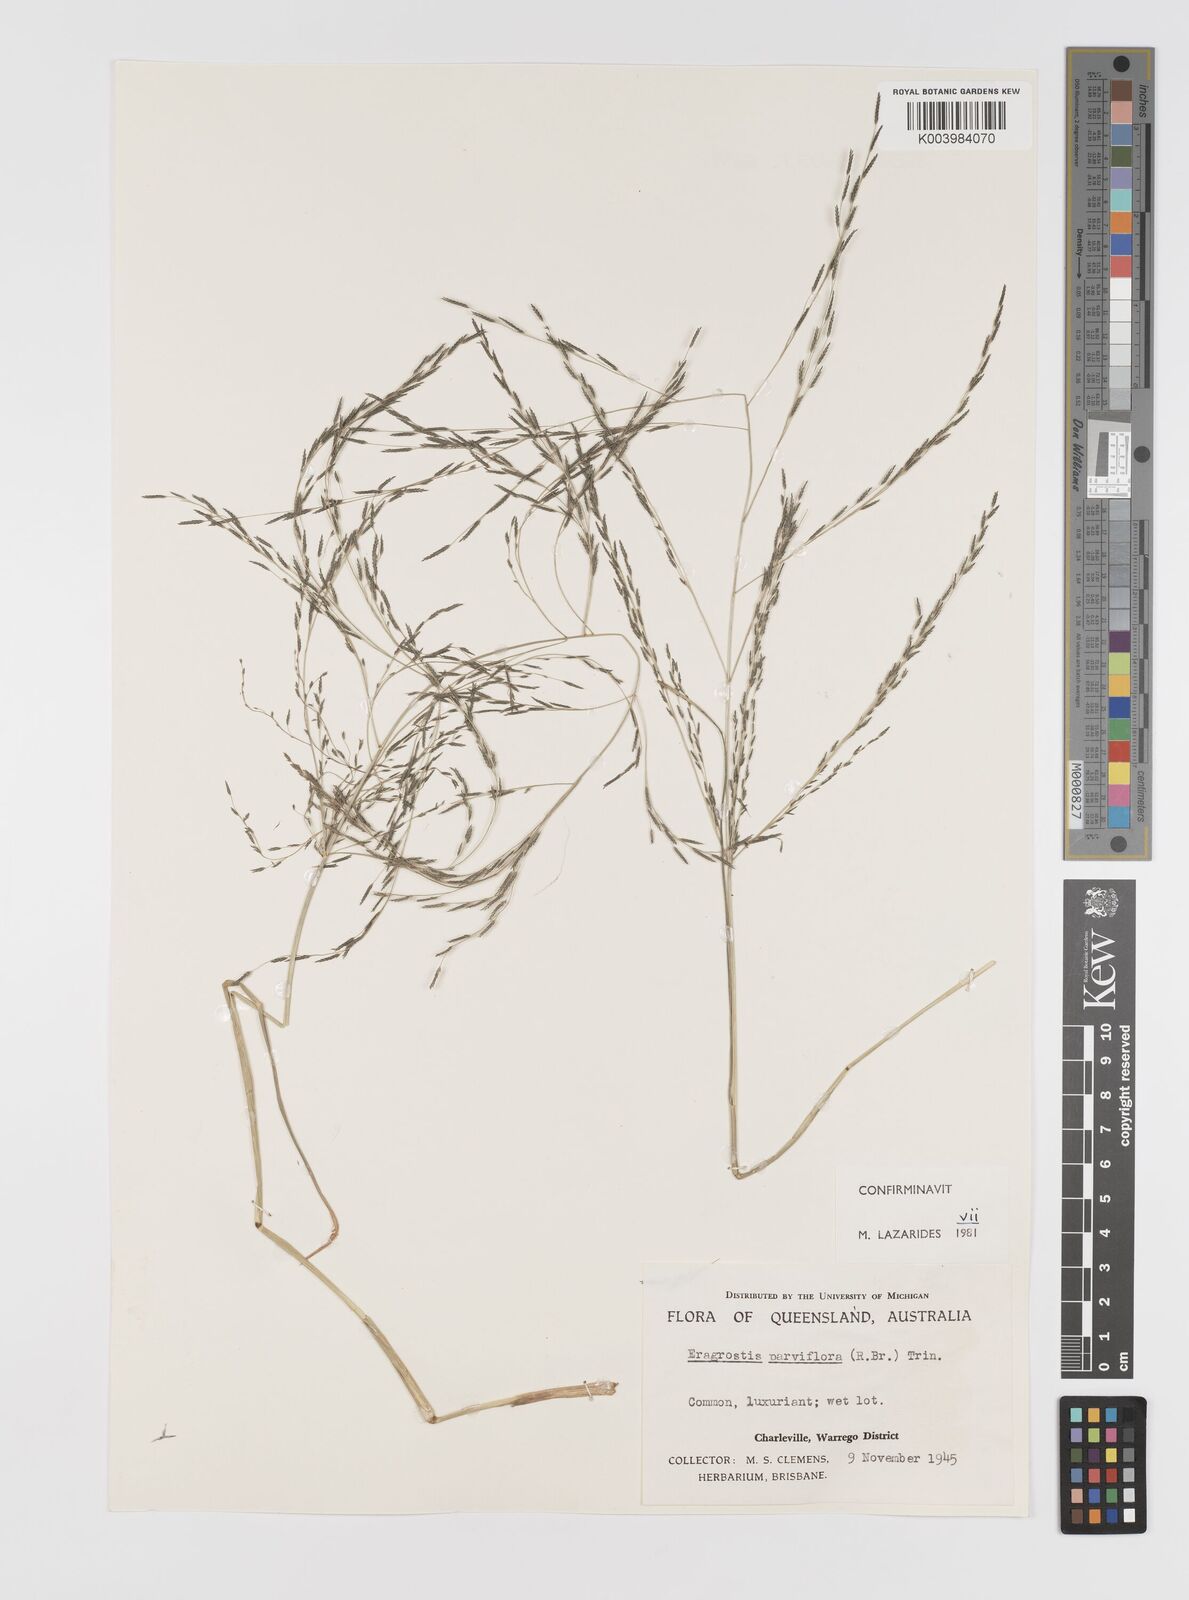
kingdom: Plantae
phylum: Tracheophyta
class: Liliopsida
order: Poales
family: Poaceae
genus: Eragrostis
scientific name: Eragrostis parviflora
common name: Weeping love-grass
